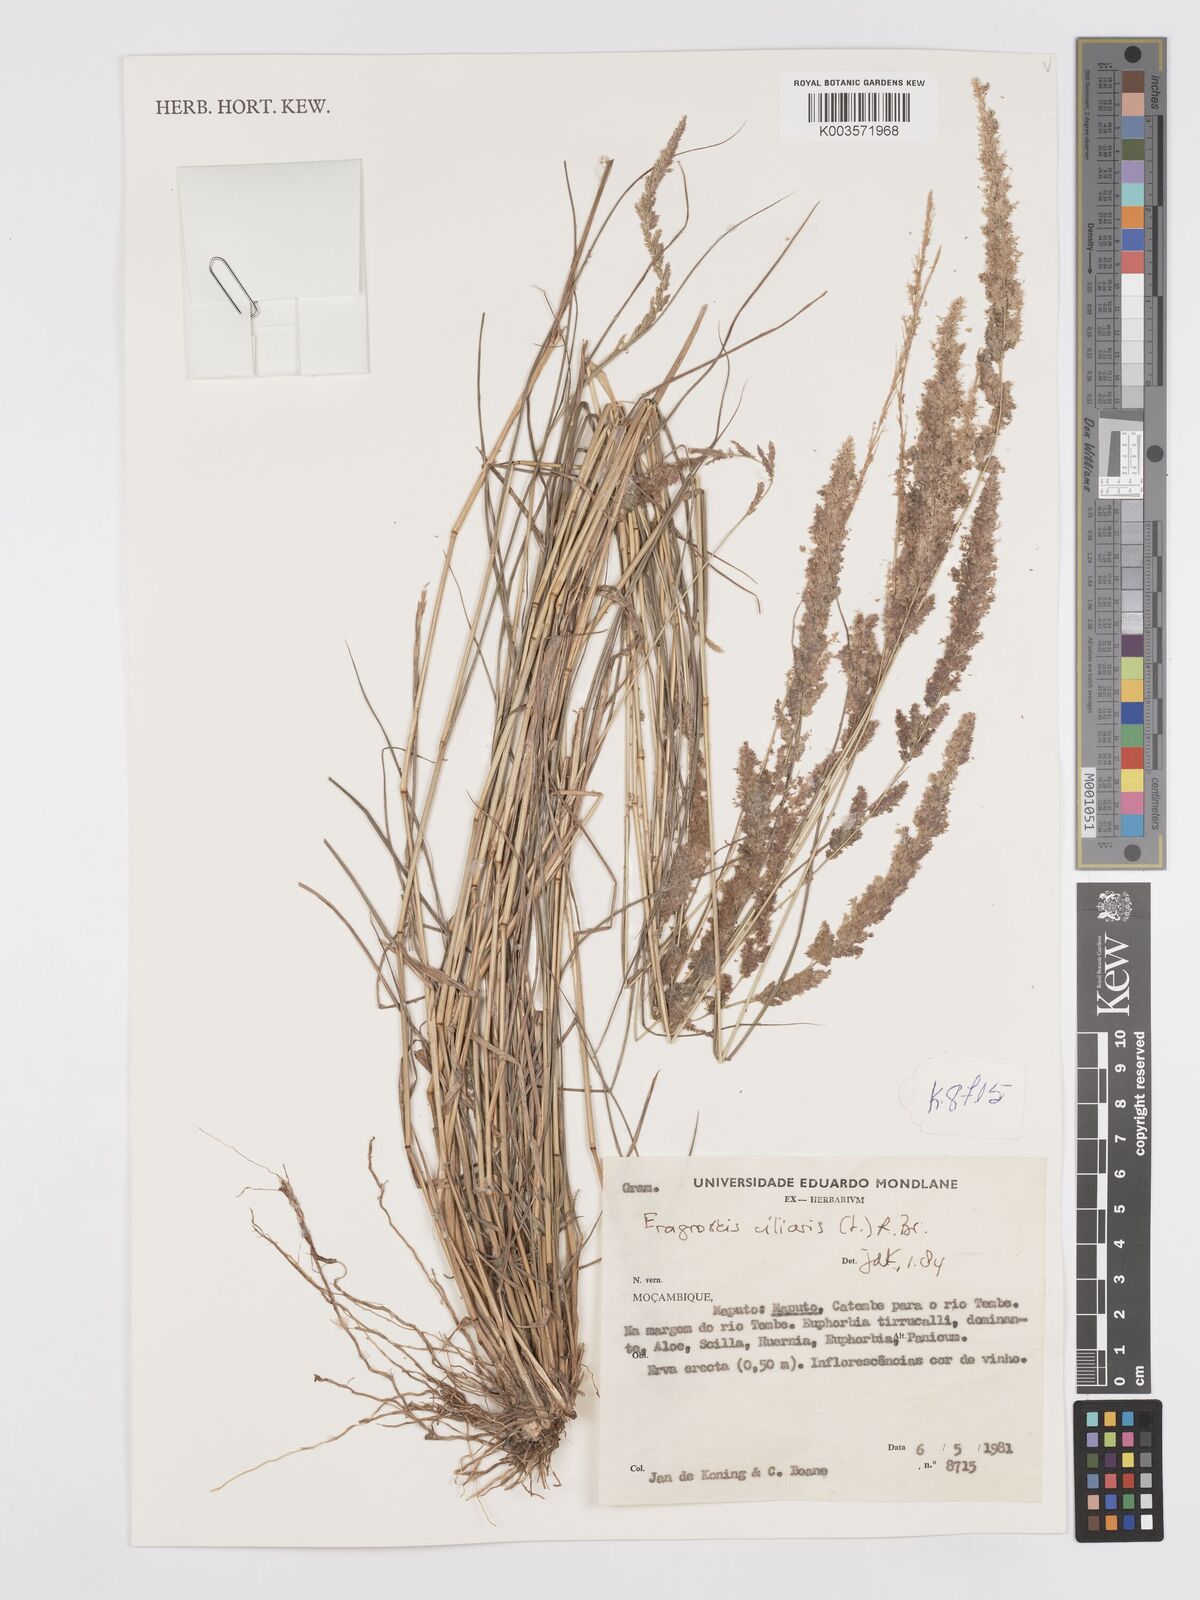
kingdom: Plantae
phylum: Tracheophyta
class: Liliopsida
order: Poales
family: Poaceae
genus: Eragrostis
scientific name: Eragrostis ciliaris
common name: Gophertail lovegrass
